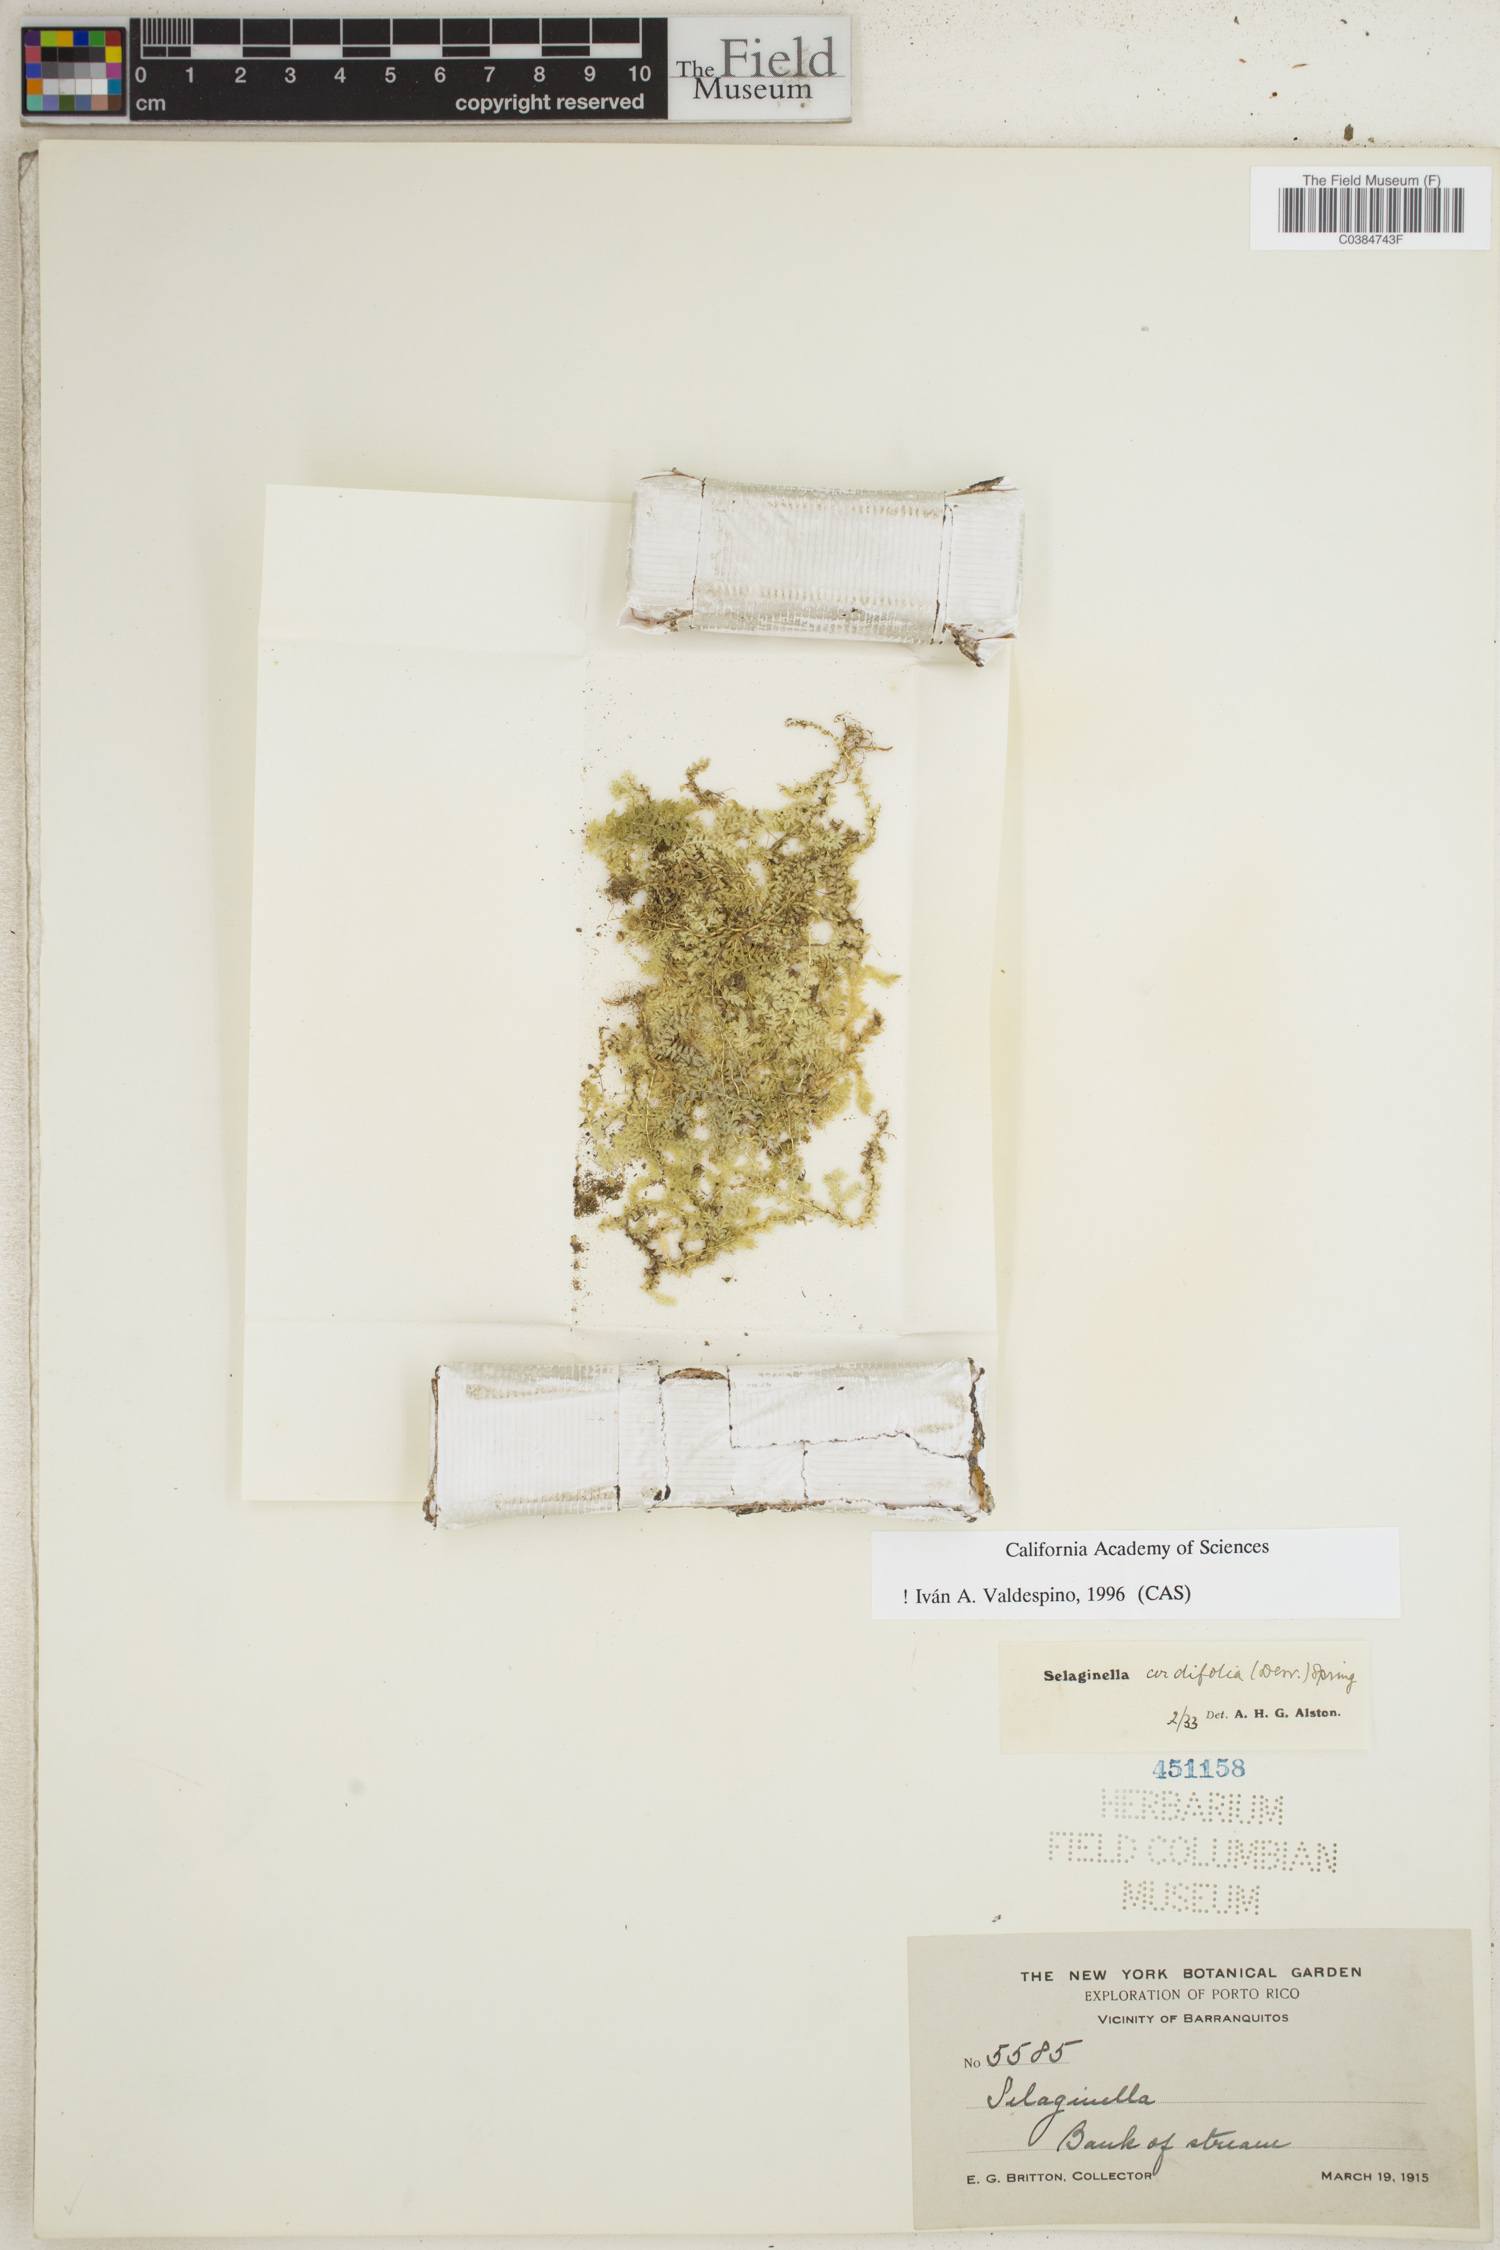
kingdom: Plantae
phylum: Tracheophyta
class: Lycopodiopsida
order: Selaginellales
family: Selaginellaceae
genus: Selaginella
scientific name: Selaginella cordifolia
